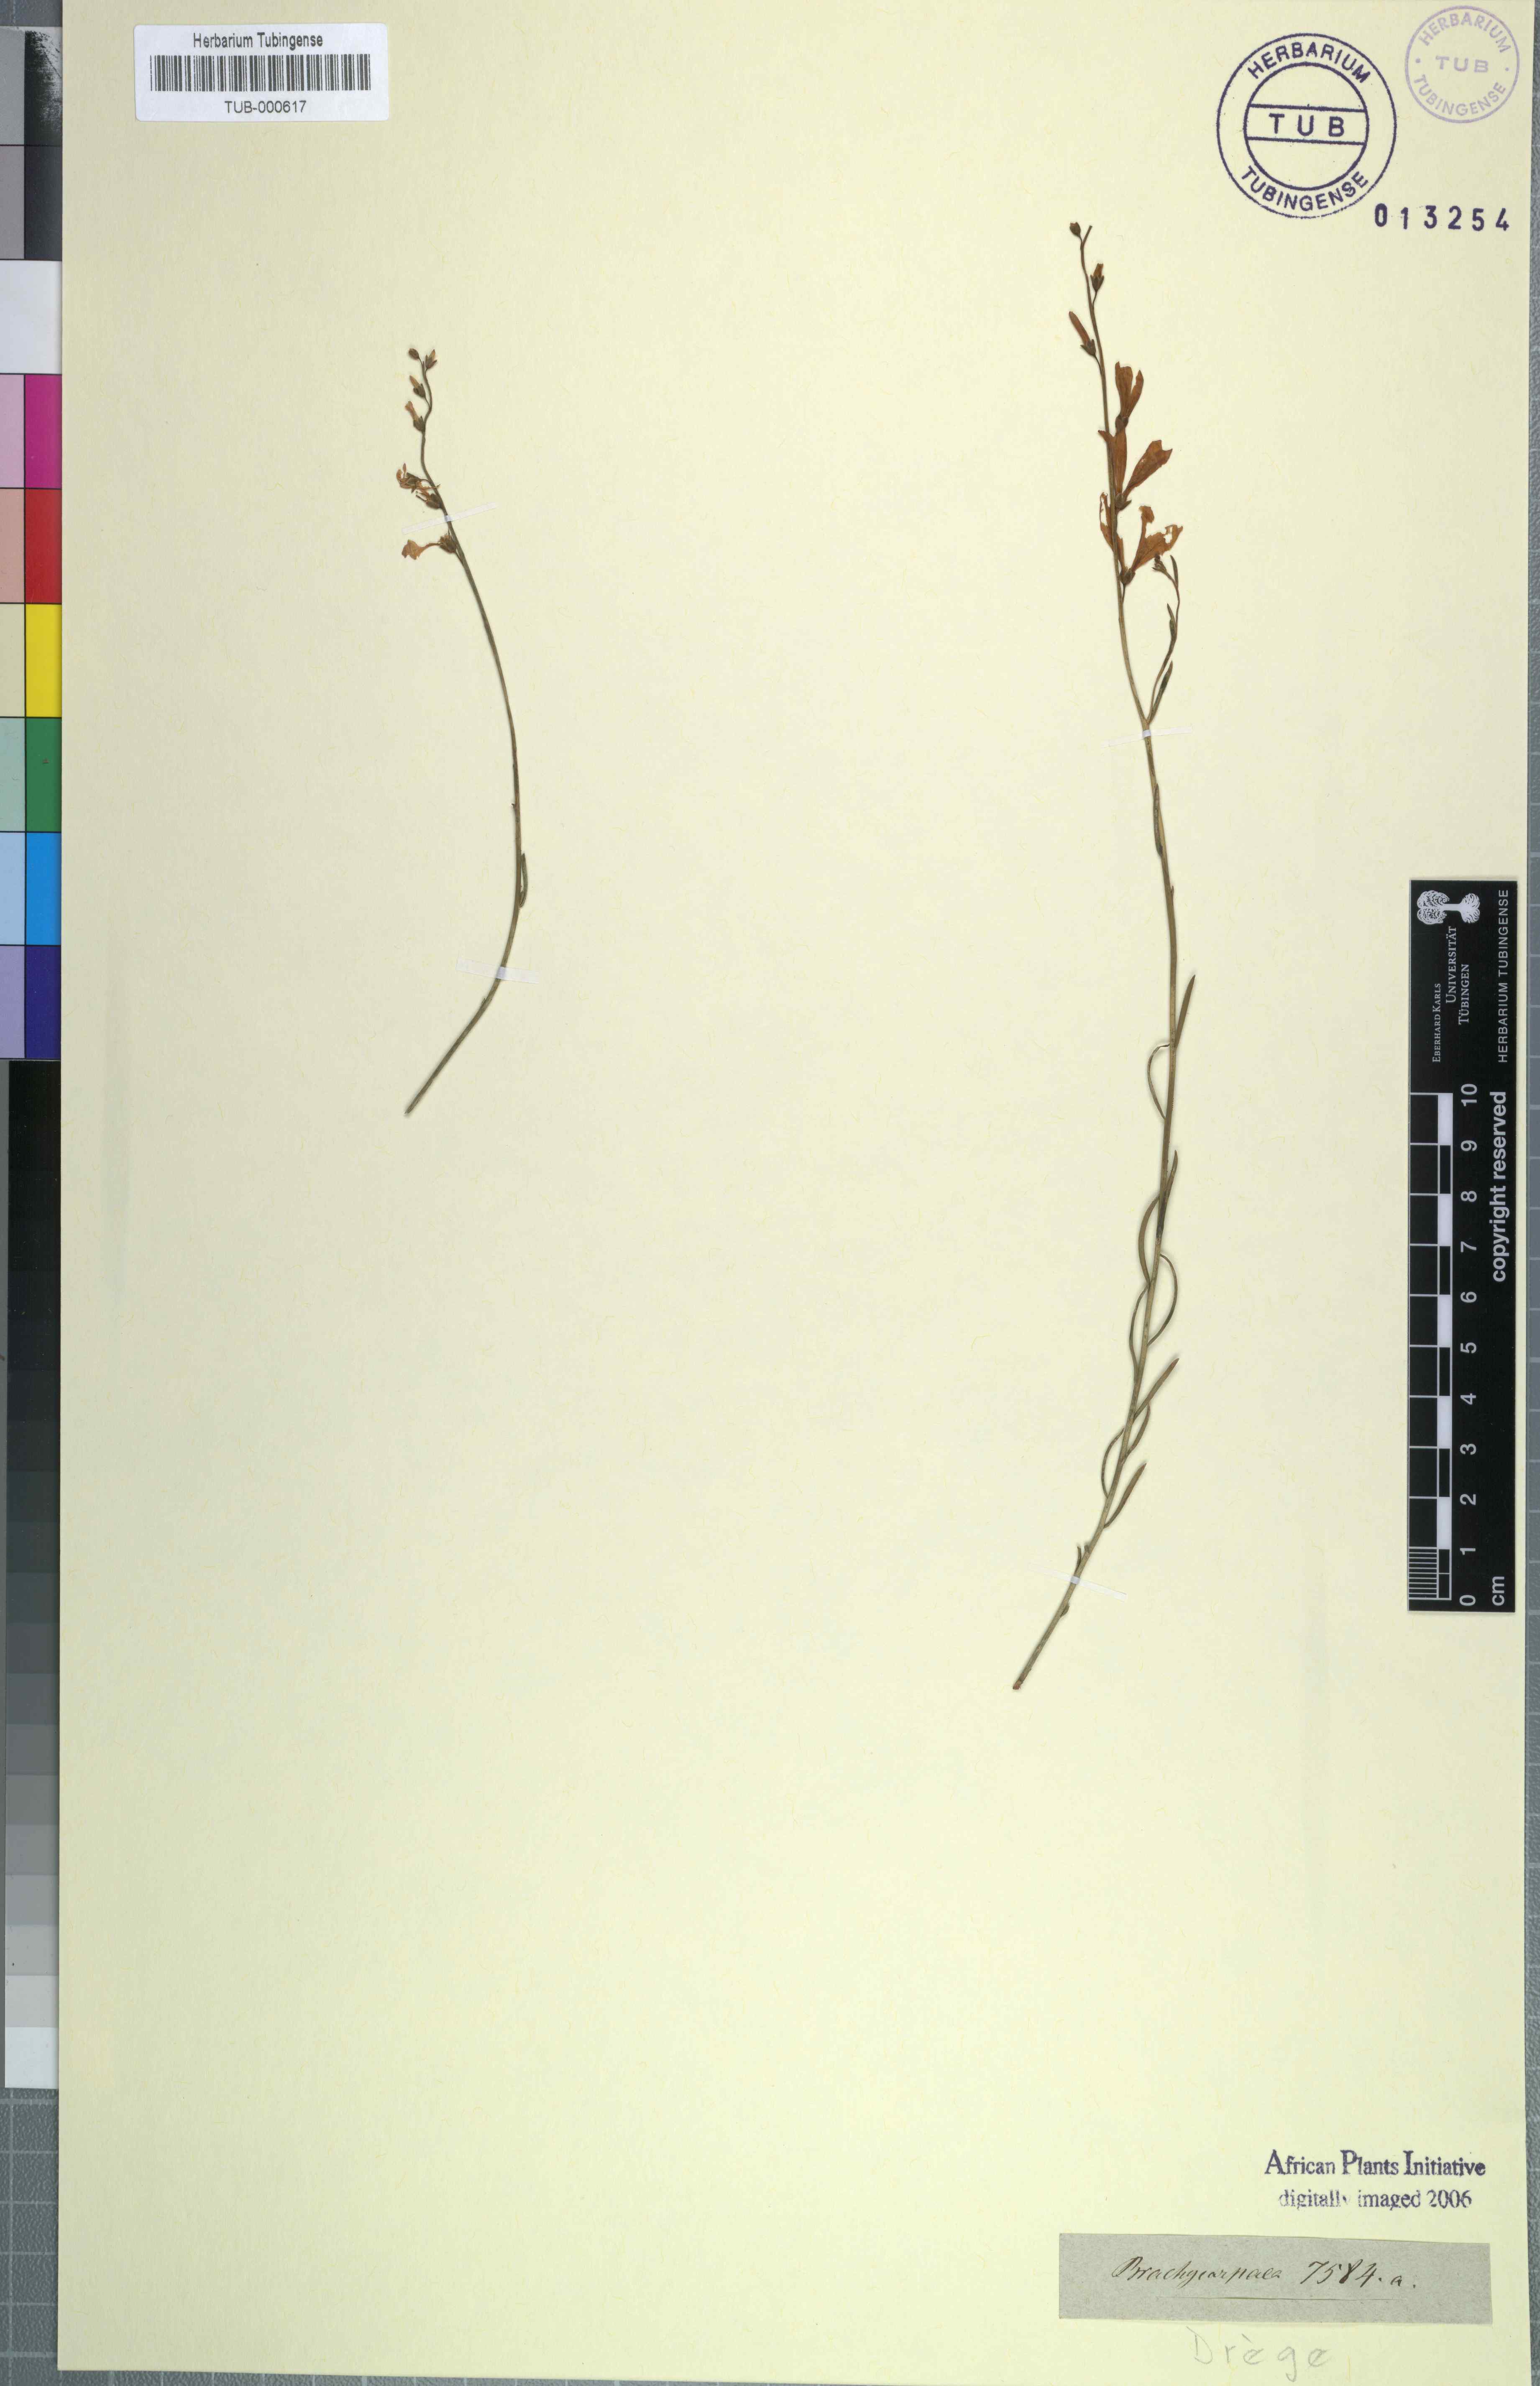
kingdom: Plantae
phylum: Tracheophyta
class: Magnoliopsida
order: Brassicales
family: Brassicaceae
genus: Heliophila
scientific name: Heliophila
